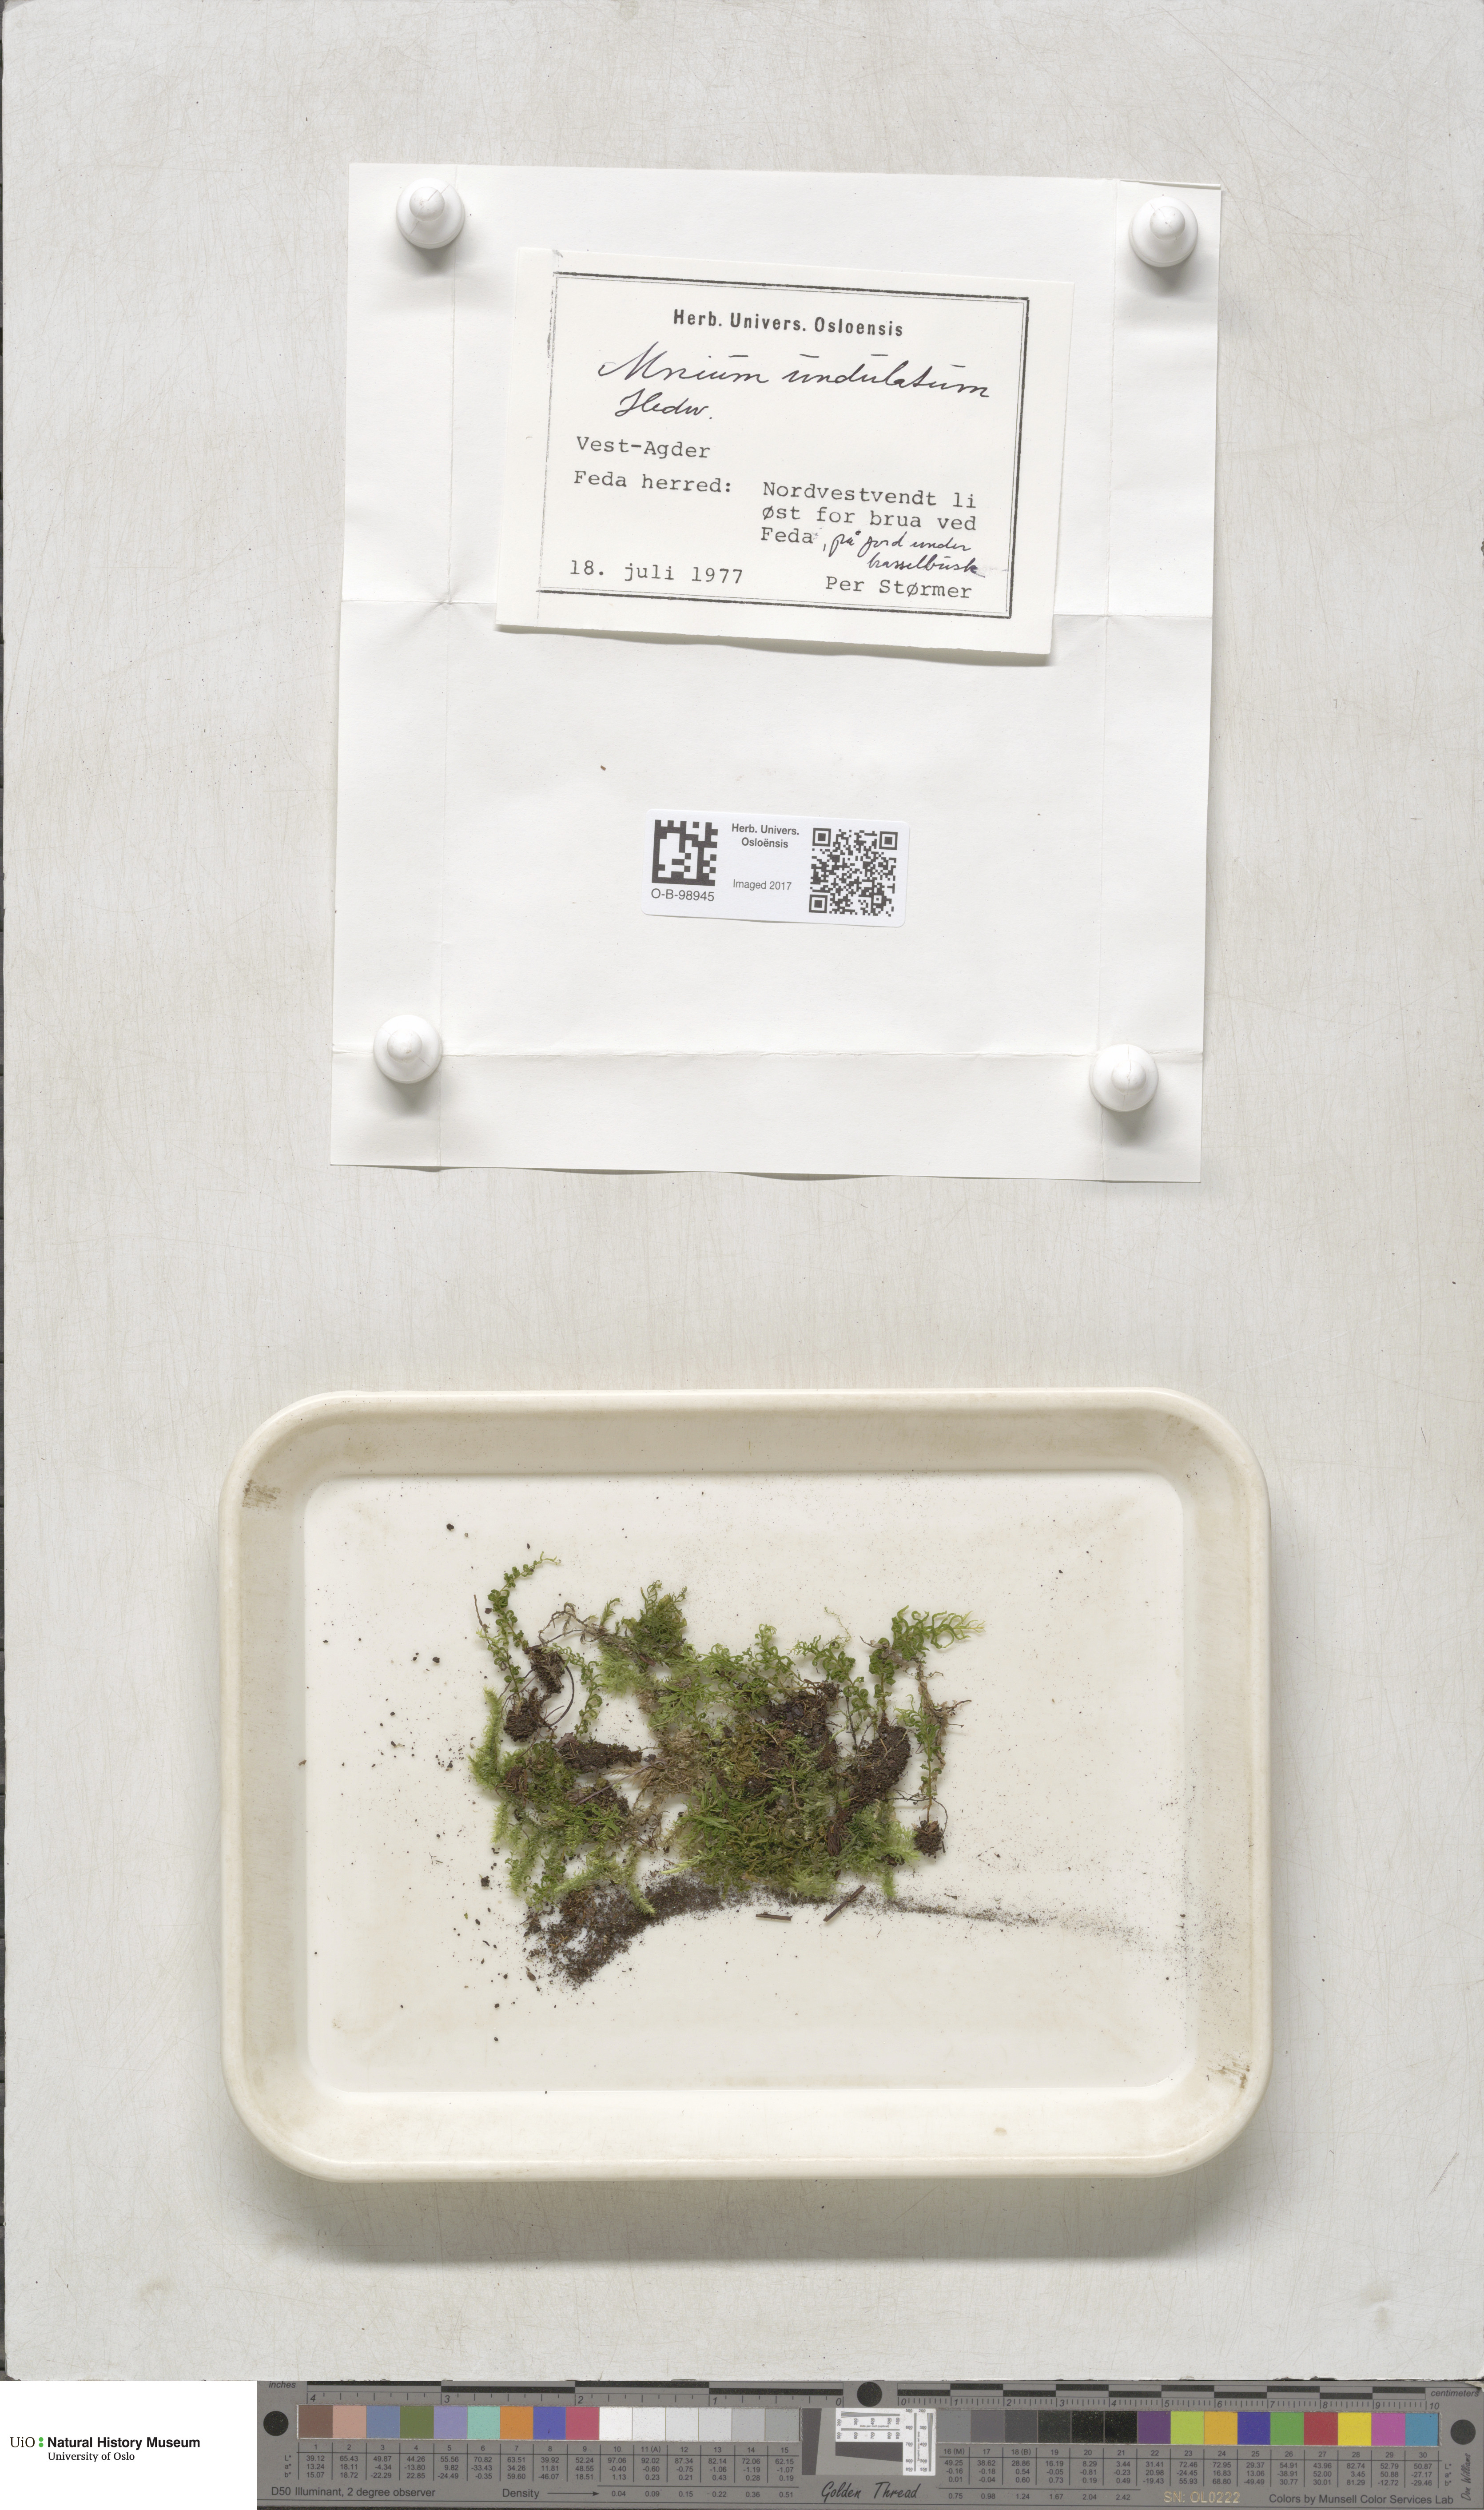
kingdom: Plantae
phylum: Bryophyta
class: Bryopsida
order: Bryales
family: Mniaceae
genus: Plagiomnium
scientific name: Plagiomnium undulatum
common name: Hart's-tongue thyme-moss
